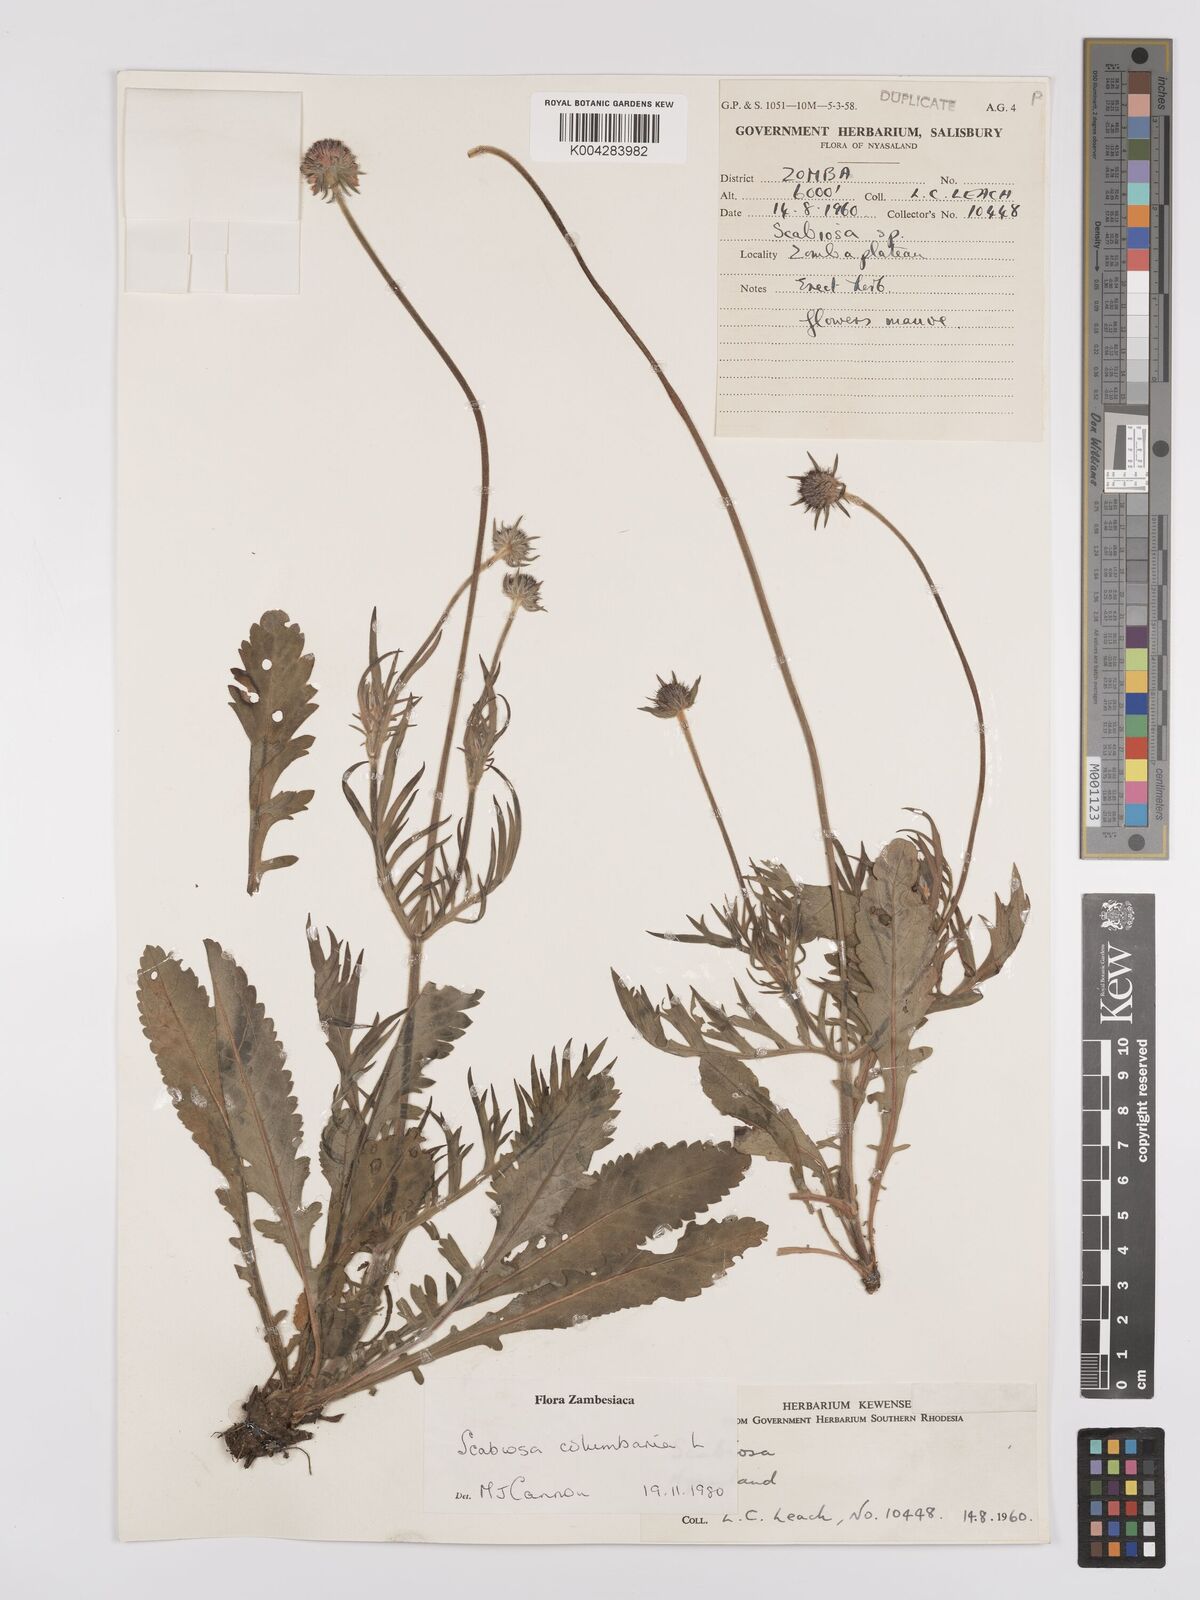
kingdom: Plantae
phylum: Tracheophyta
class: Magnoliopsida
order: Dipsacales
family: Caprifoliaceae
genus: Scabiosa
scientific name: Scabiosa columbaria
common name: Small scabious
